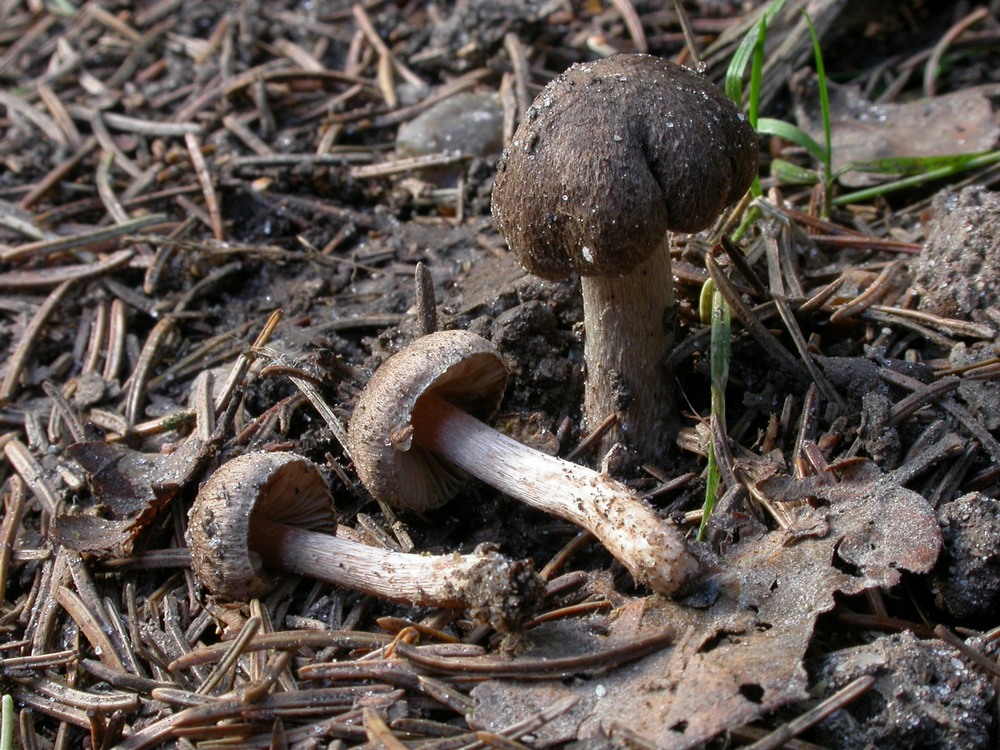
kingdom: Fungi
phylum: Basidiomycota
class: Agaricomycetes
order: Agaricales
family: Inocybaceae
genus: Inocybe
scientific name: Inocybe lacera
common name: laset trævlhat
